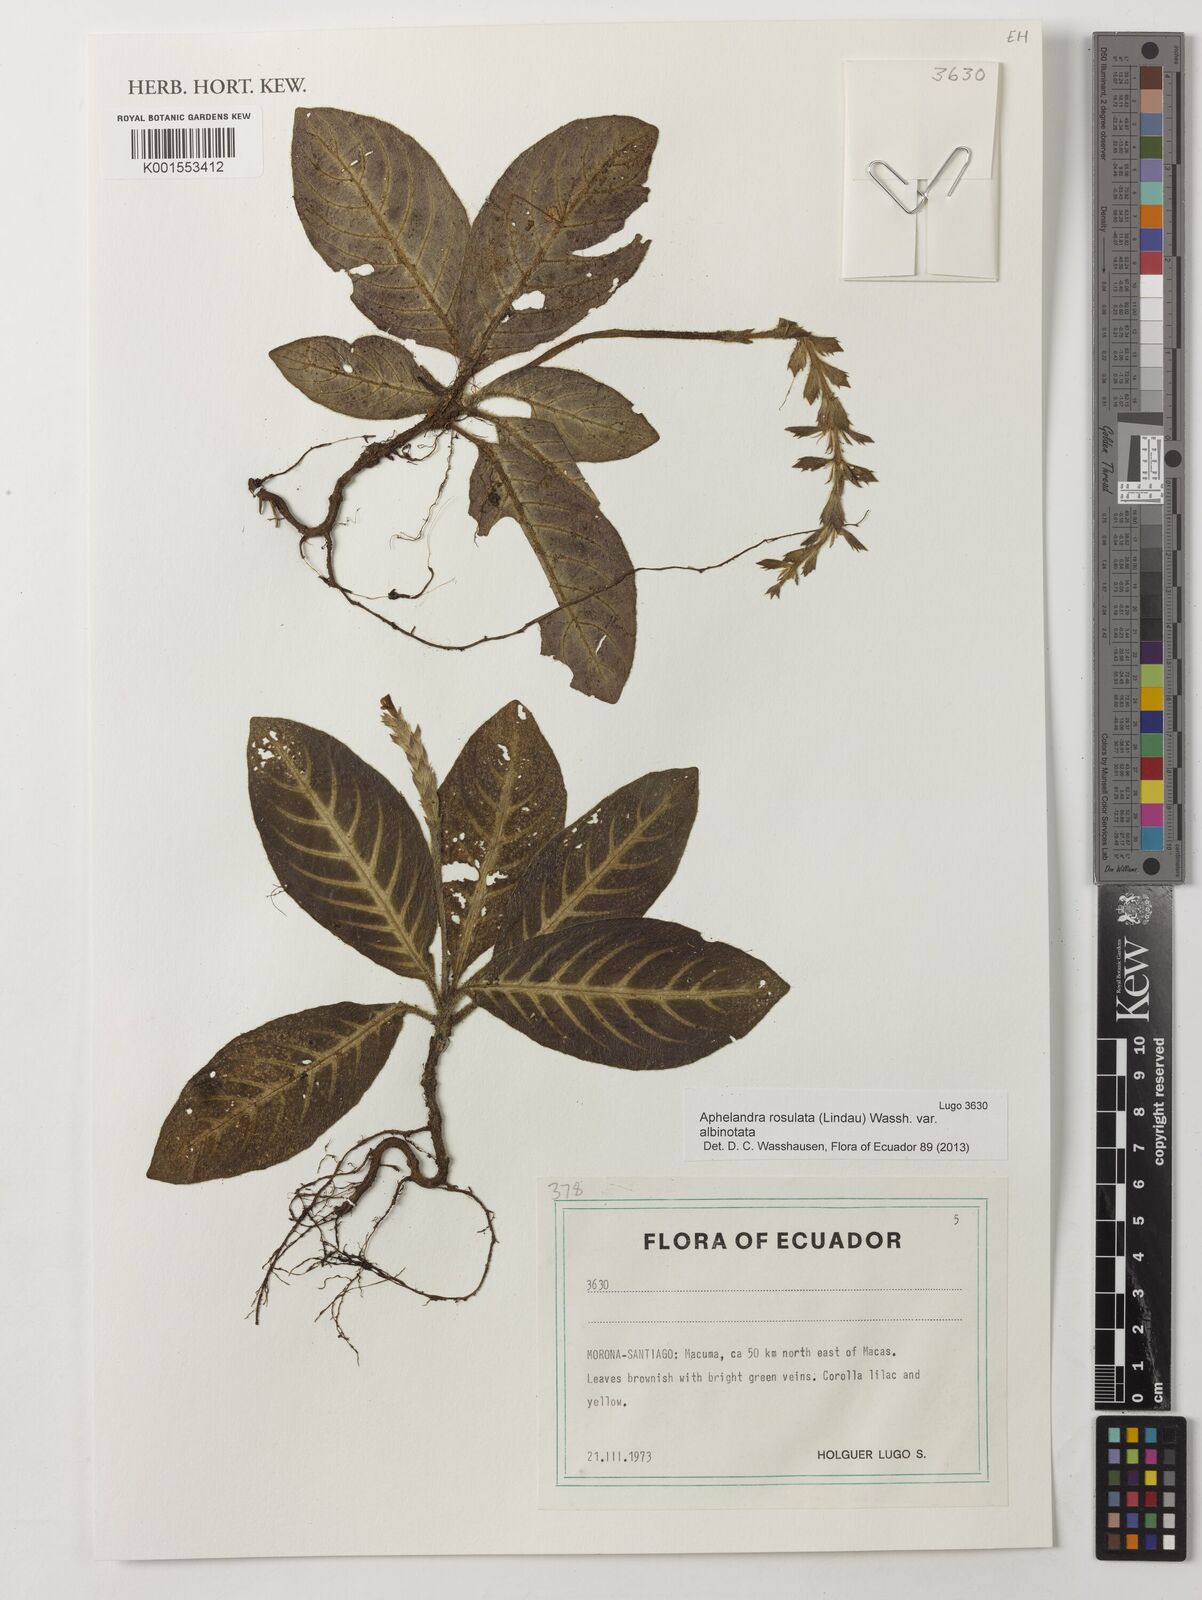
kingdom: Plantae
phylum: Tracheophyta
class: Magnoliopsida
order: Lamiales
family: Acanthaceae
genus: Aphelandra
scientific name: Aphelandra rosulata
